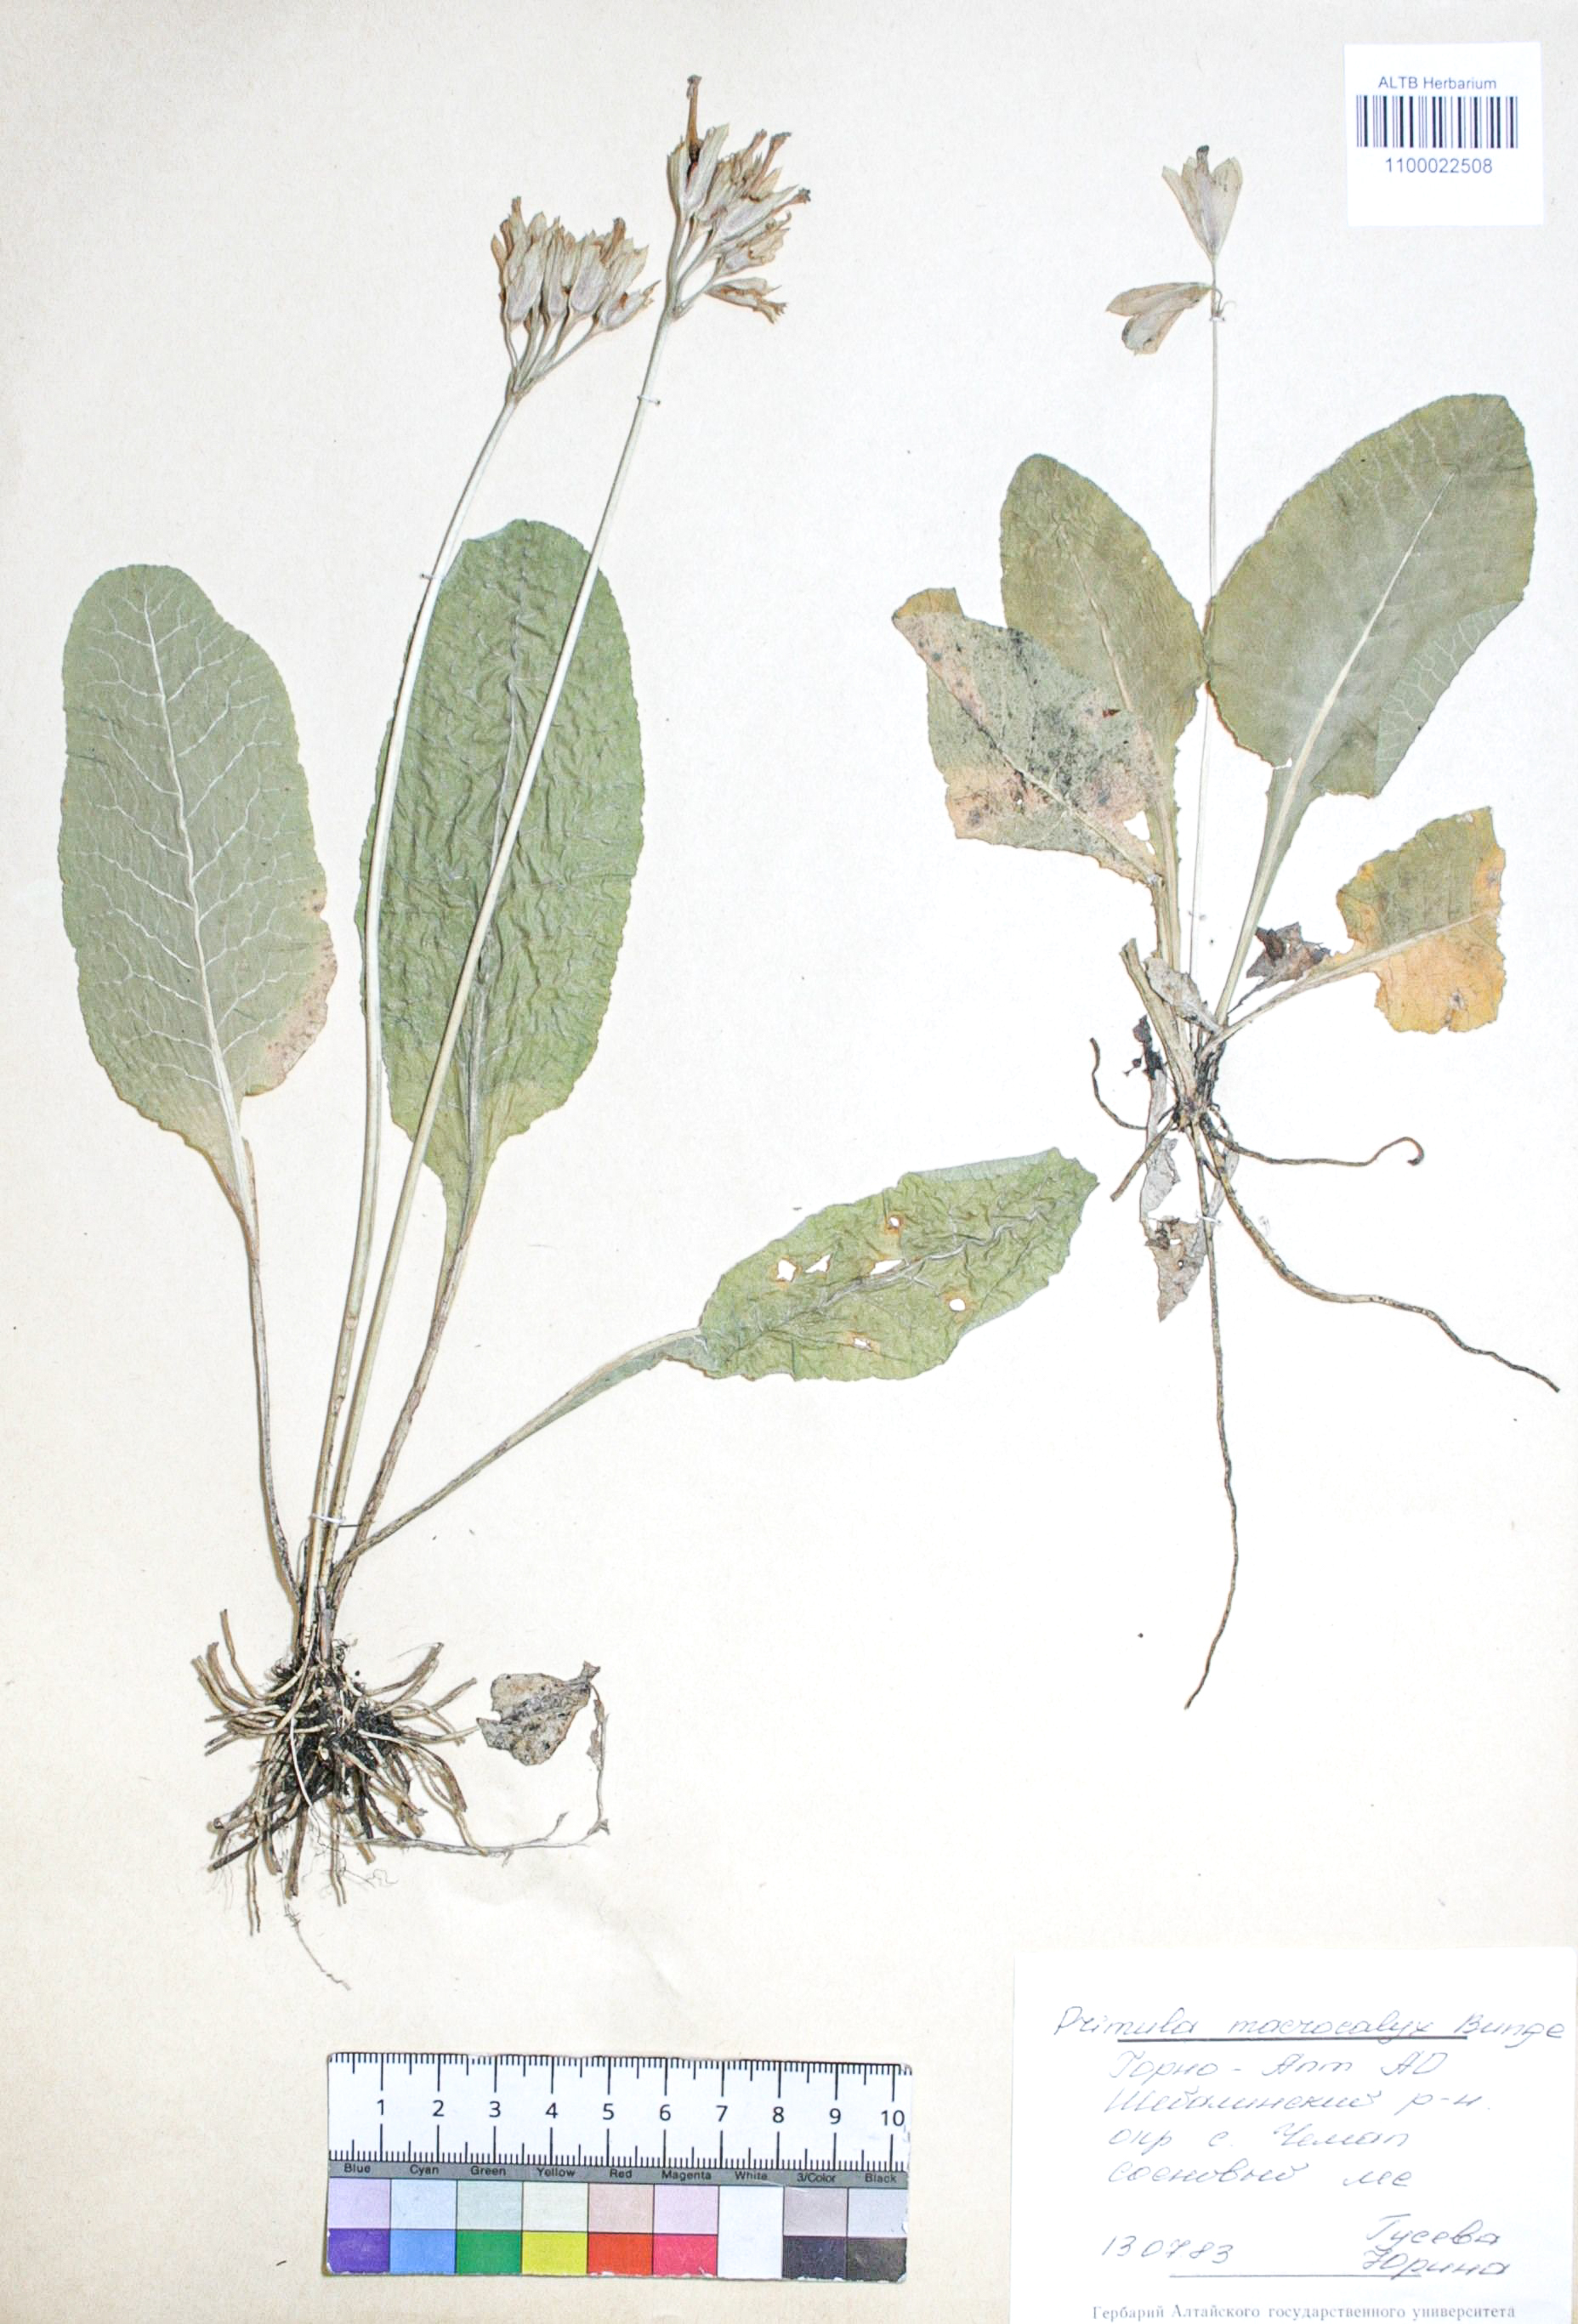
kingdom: Plantae
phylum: Tracheophyta
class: Magnoliopsida
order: Ericales
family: Primulaceae
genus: Primula
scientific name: Primula veris
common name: Cowslip
